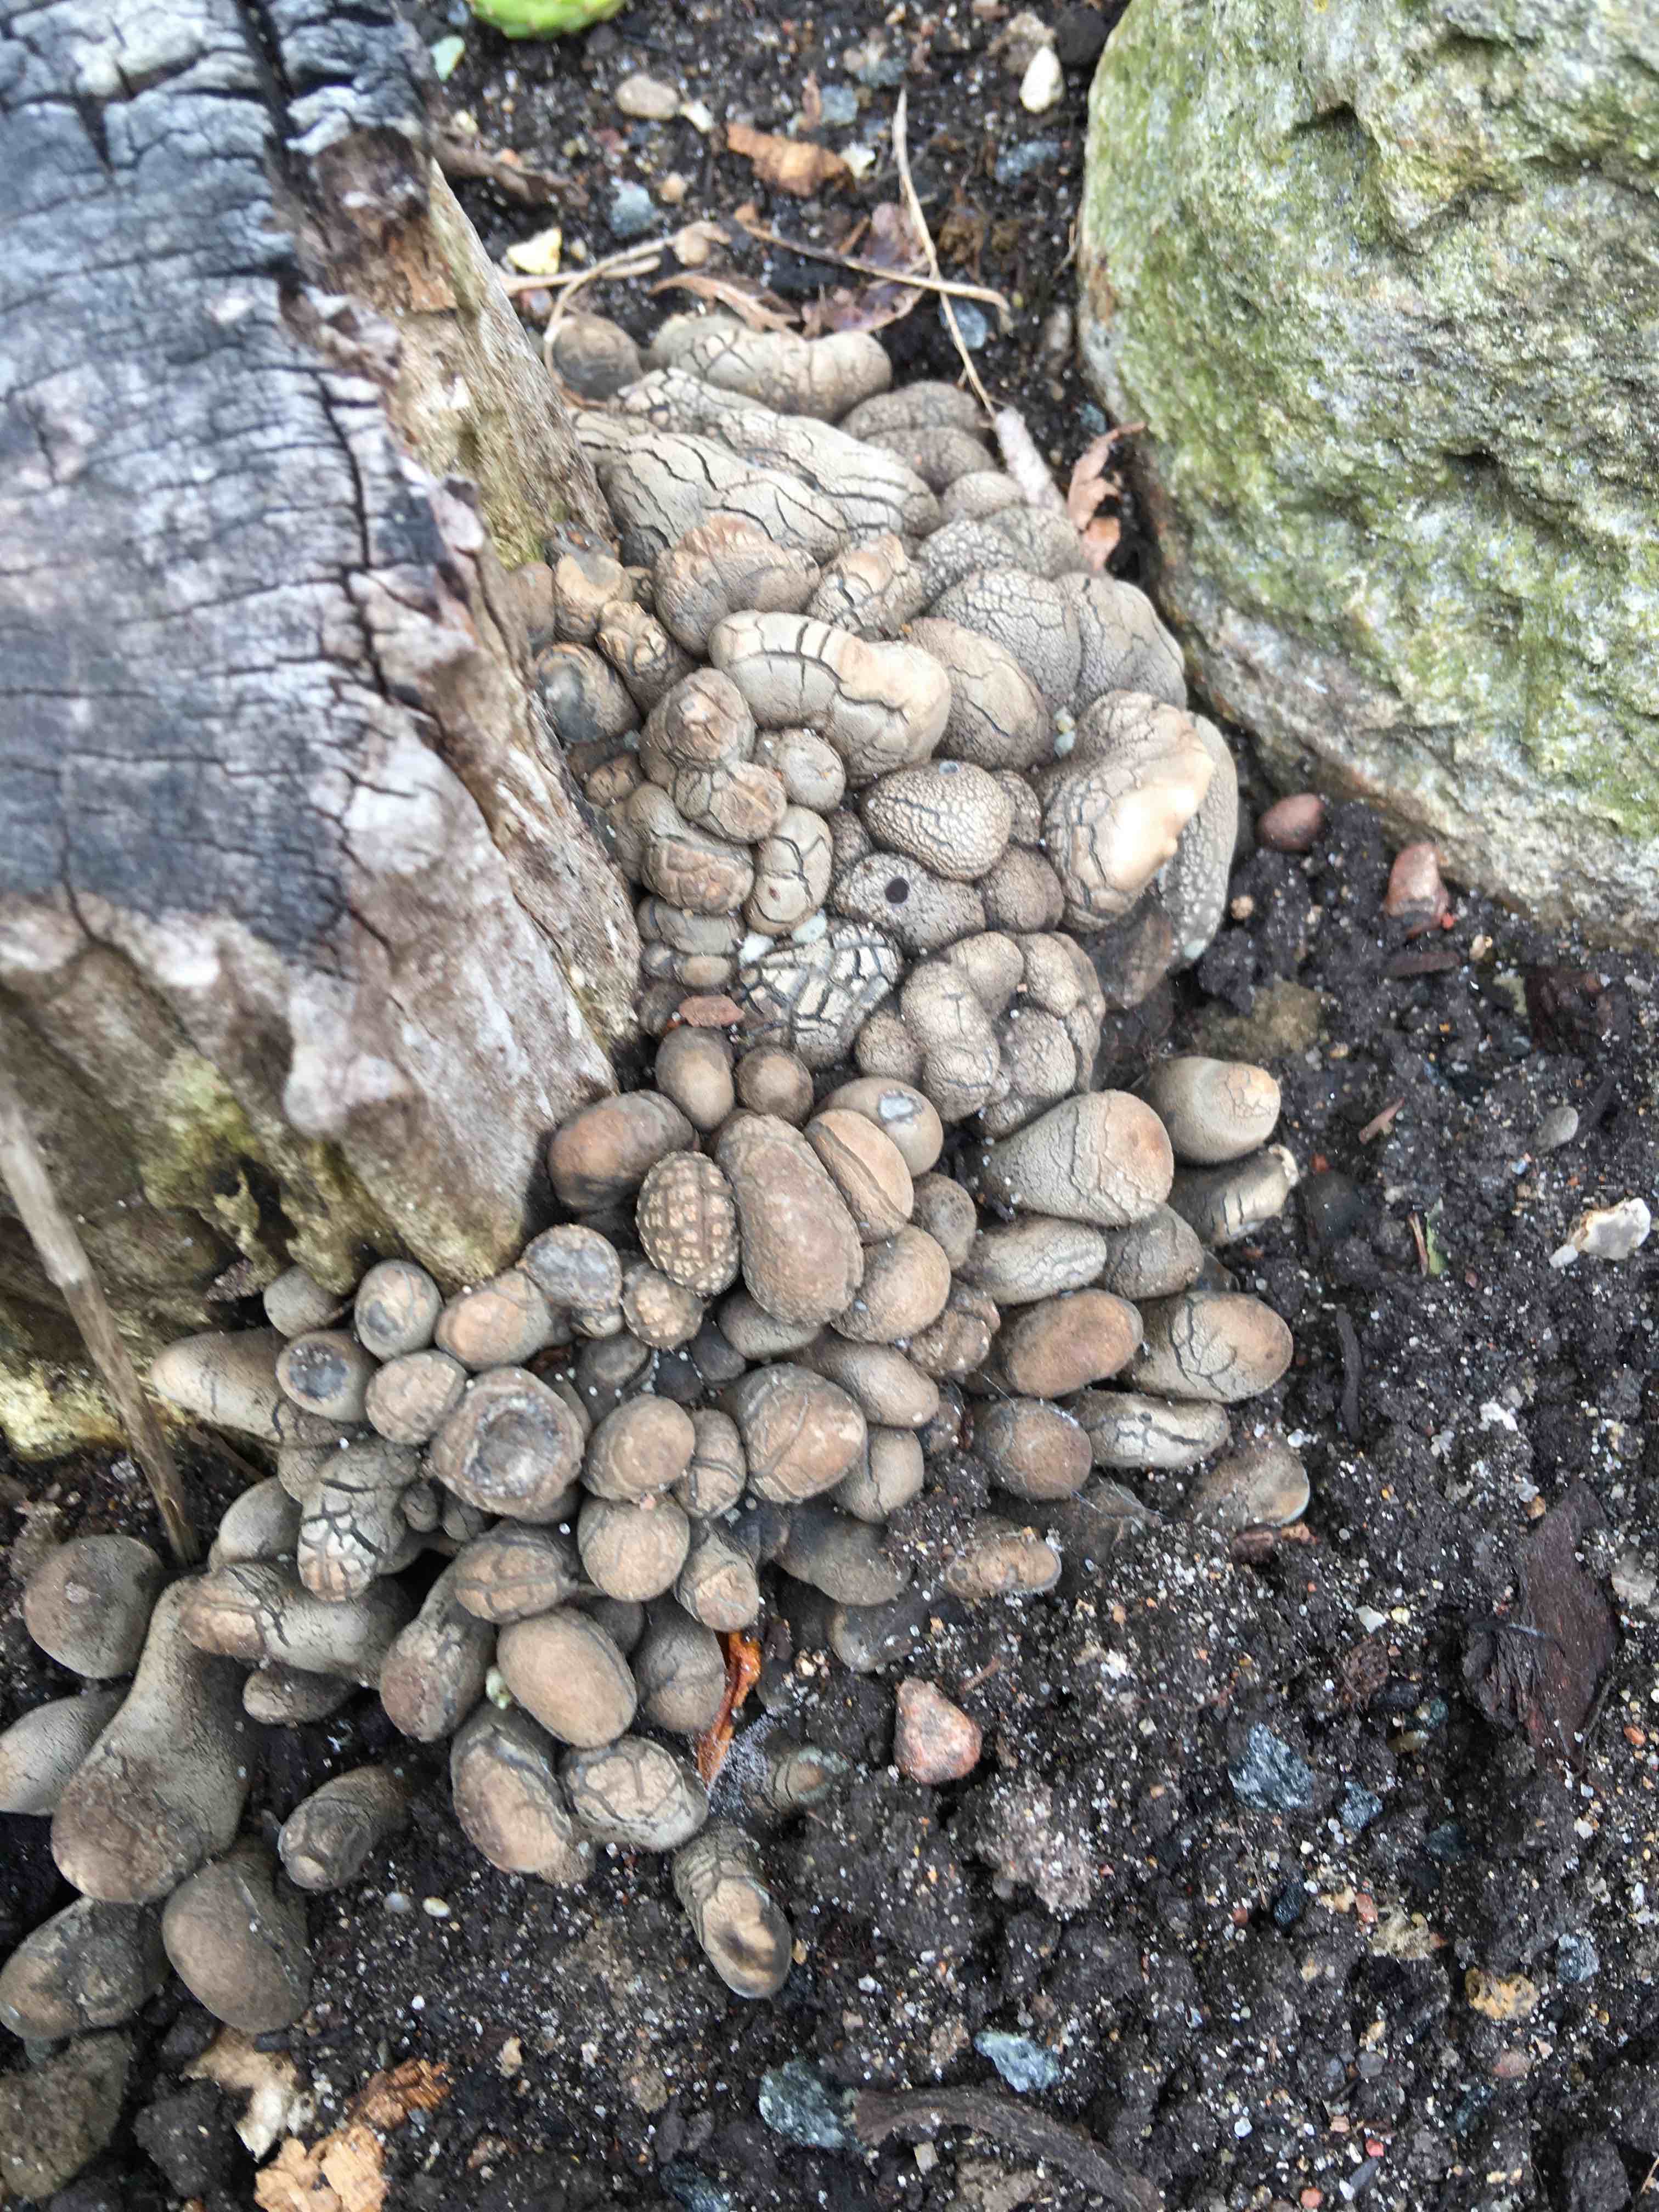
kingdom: Fungi
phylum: Ascomycota
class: Sordariomycetes
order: Xylariales
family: Xylariaceae
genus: Xylaria
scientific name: Xylaria polymorpha
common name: kølle-stødsvamp
